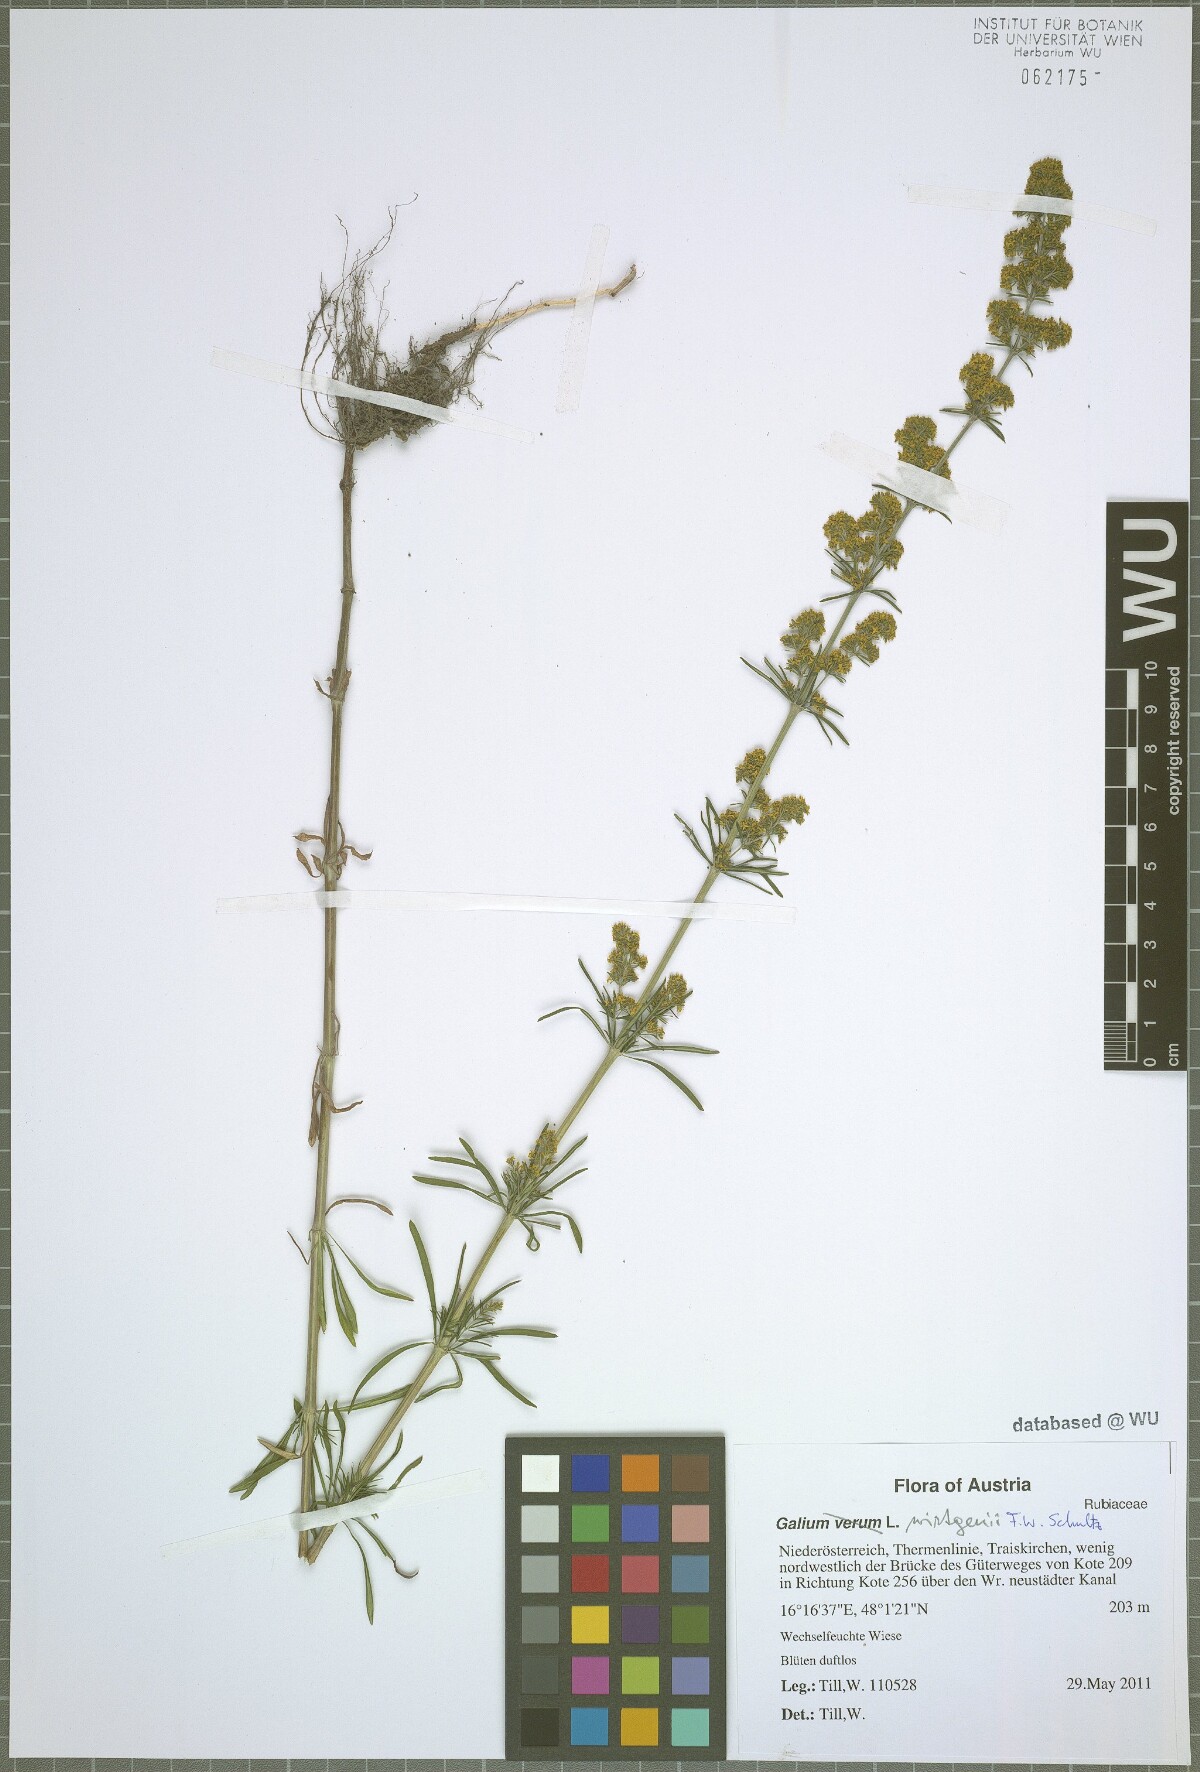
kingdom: Plantae
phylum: Tracheophyta
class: Magnoliopsida
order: Gentianales
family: Rubiaceae
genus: Galium
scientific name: Galium verum
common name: Lady's bedstraw
